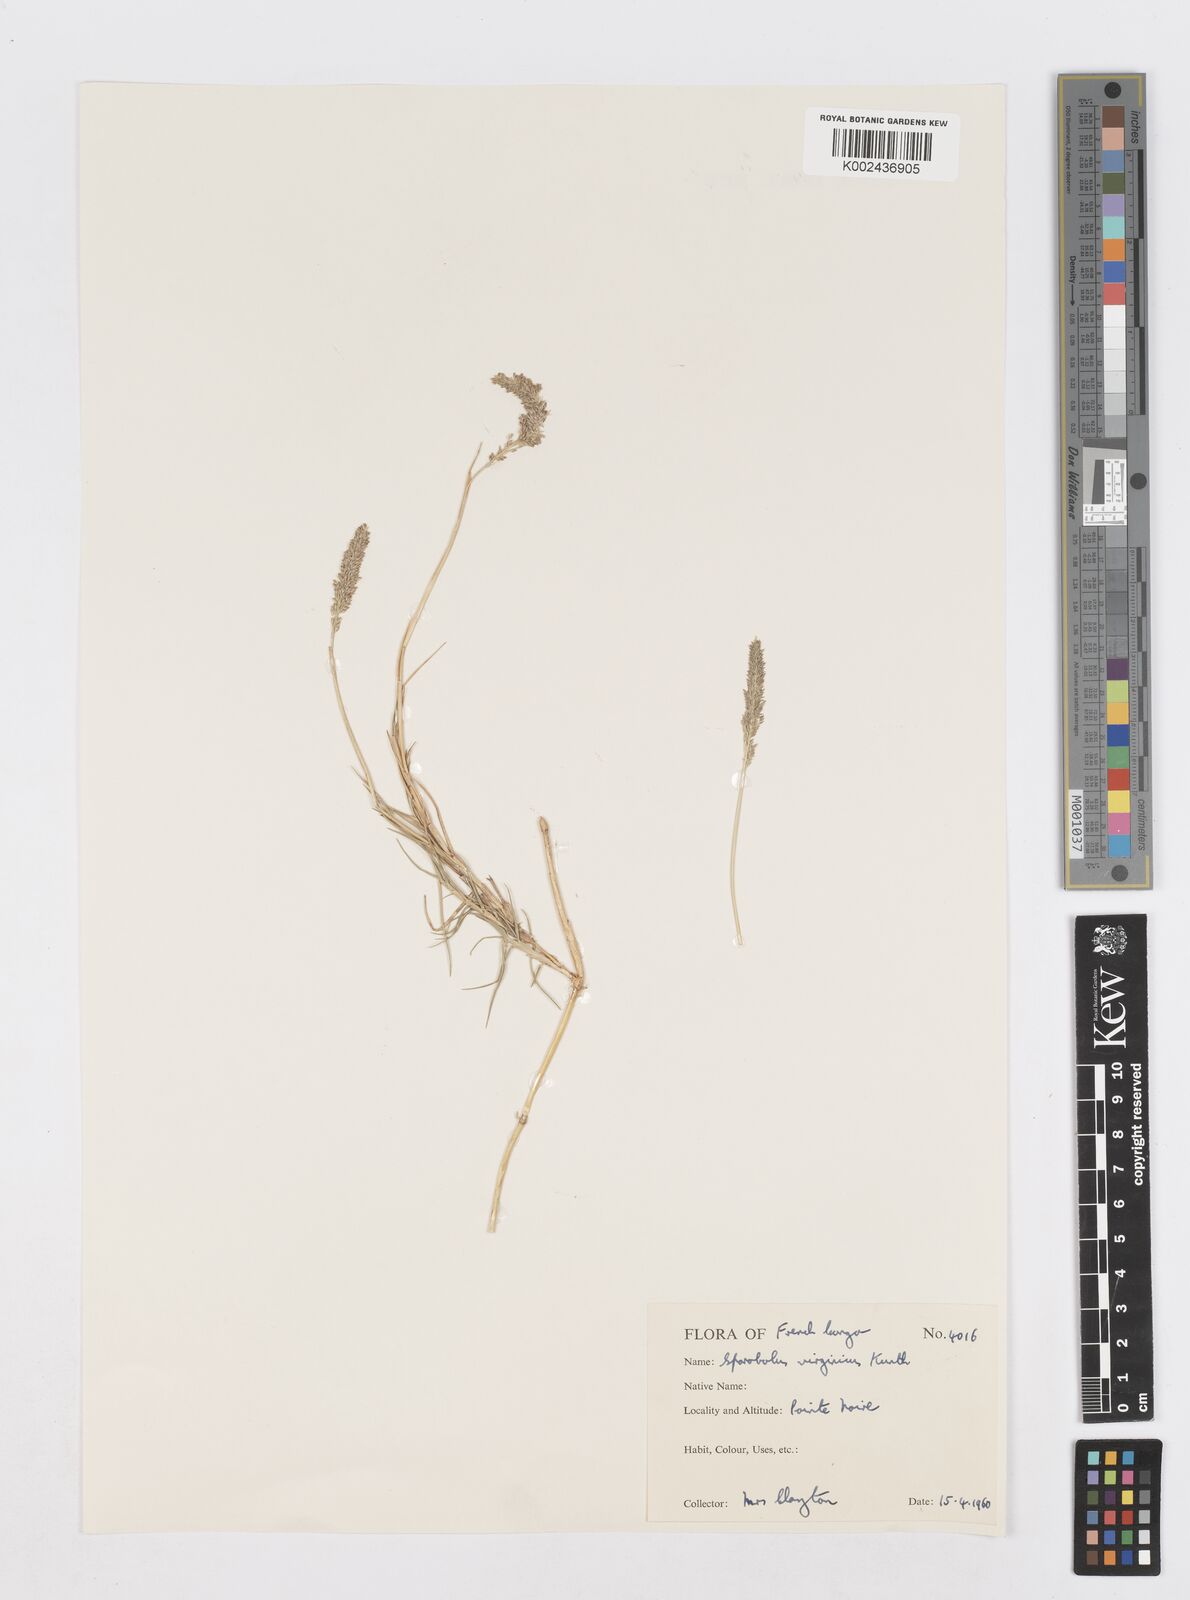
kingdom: Plantae
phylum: Tracheophyta
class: Liliopsida
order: Poales
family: Poaceae
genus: Sporobolus
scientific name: Sporobolus virginicus
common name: Beach dropseed
